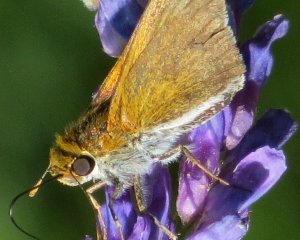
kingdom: Animalia
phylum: Arthropoda
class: Insecta
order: Lepidoptera
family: Hesperiidae
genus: Euphyes
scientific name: Euphyes bimacula
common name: Two-spotted Skipper
